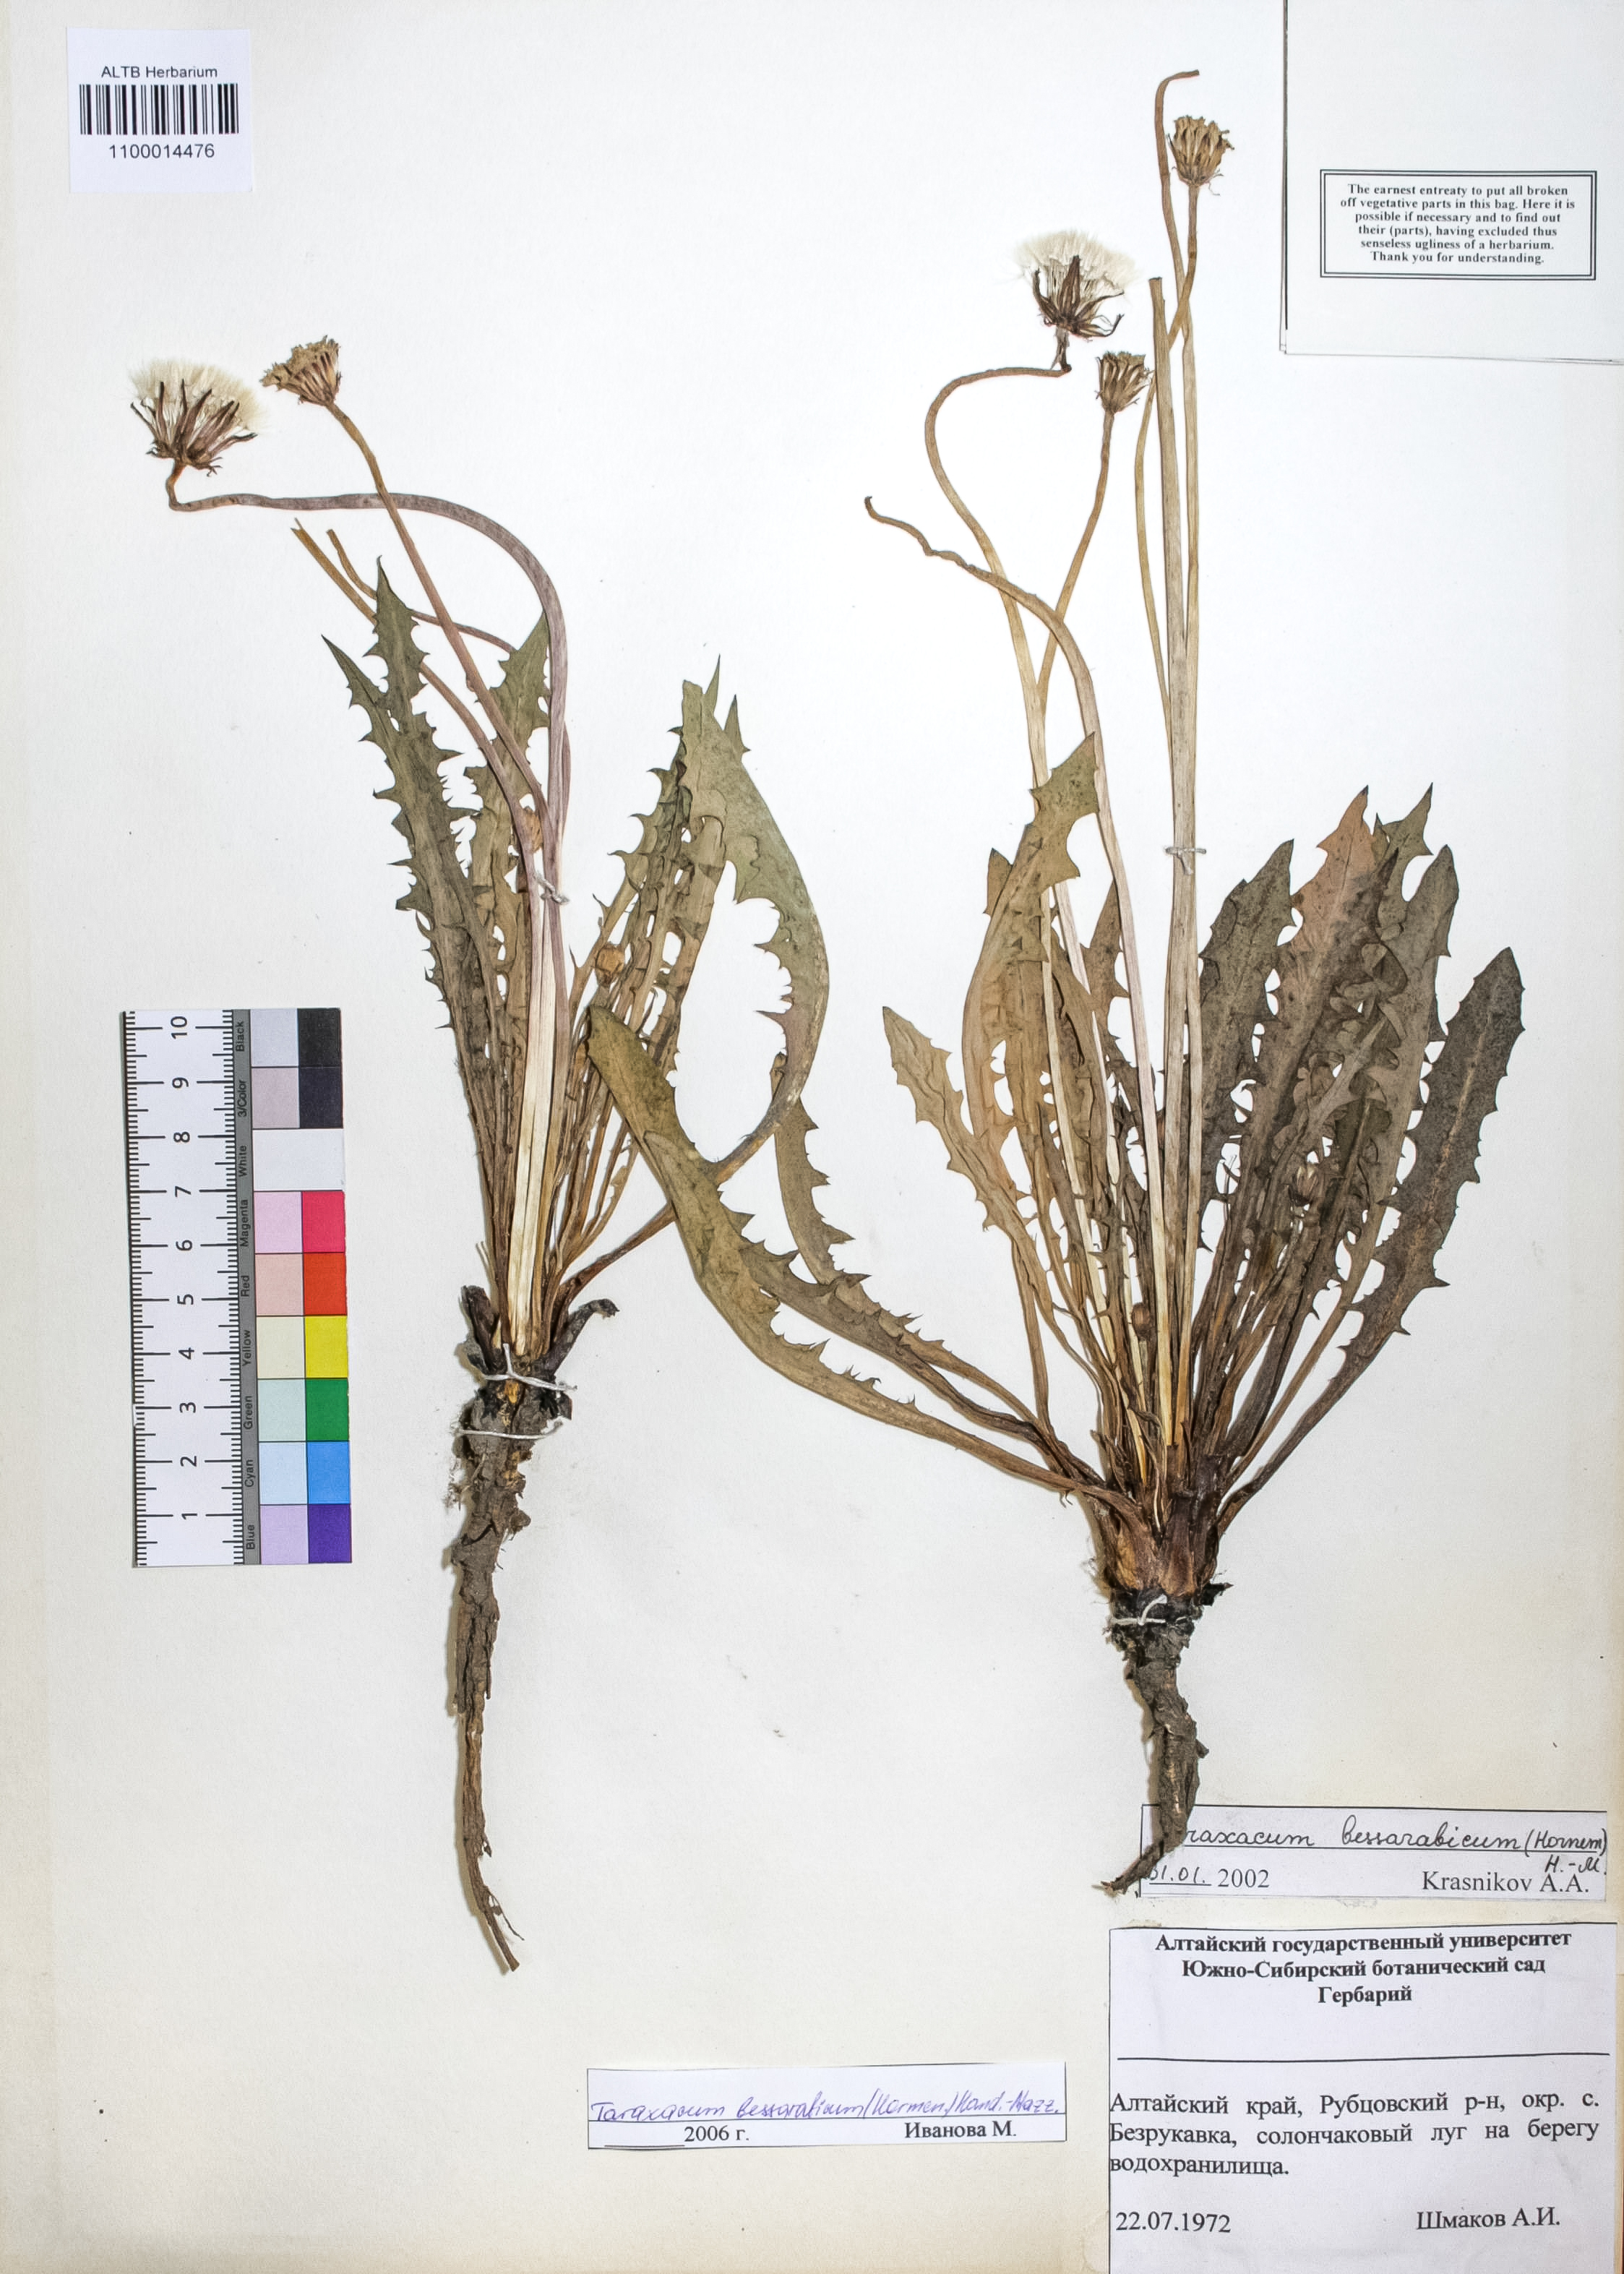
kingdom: Plantae
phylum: Tracheophyta
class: Magnoliopsida
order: Asterales
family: Asteraceae
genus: Taraxacum
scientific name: Taraxacum bessarabicum
